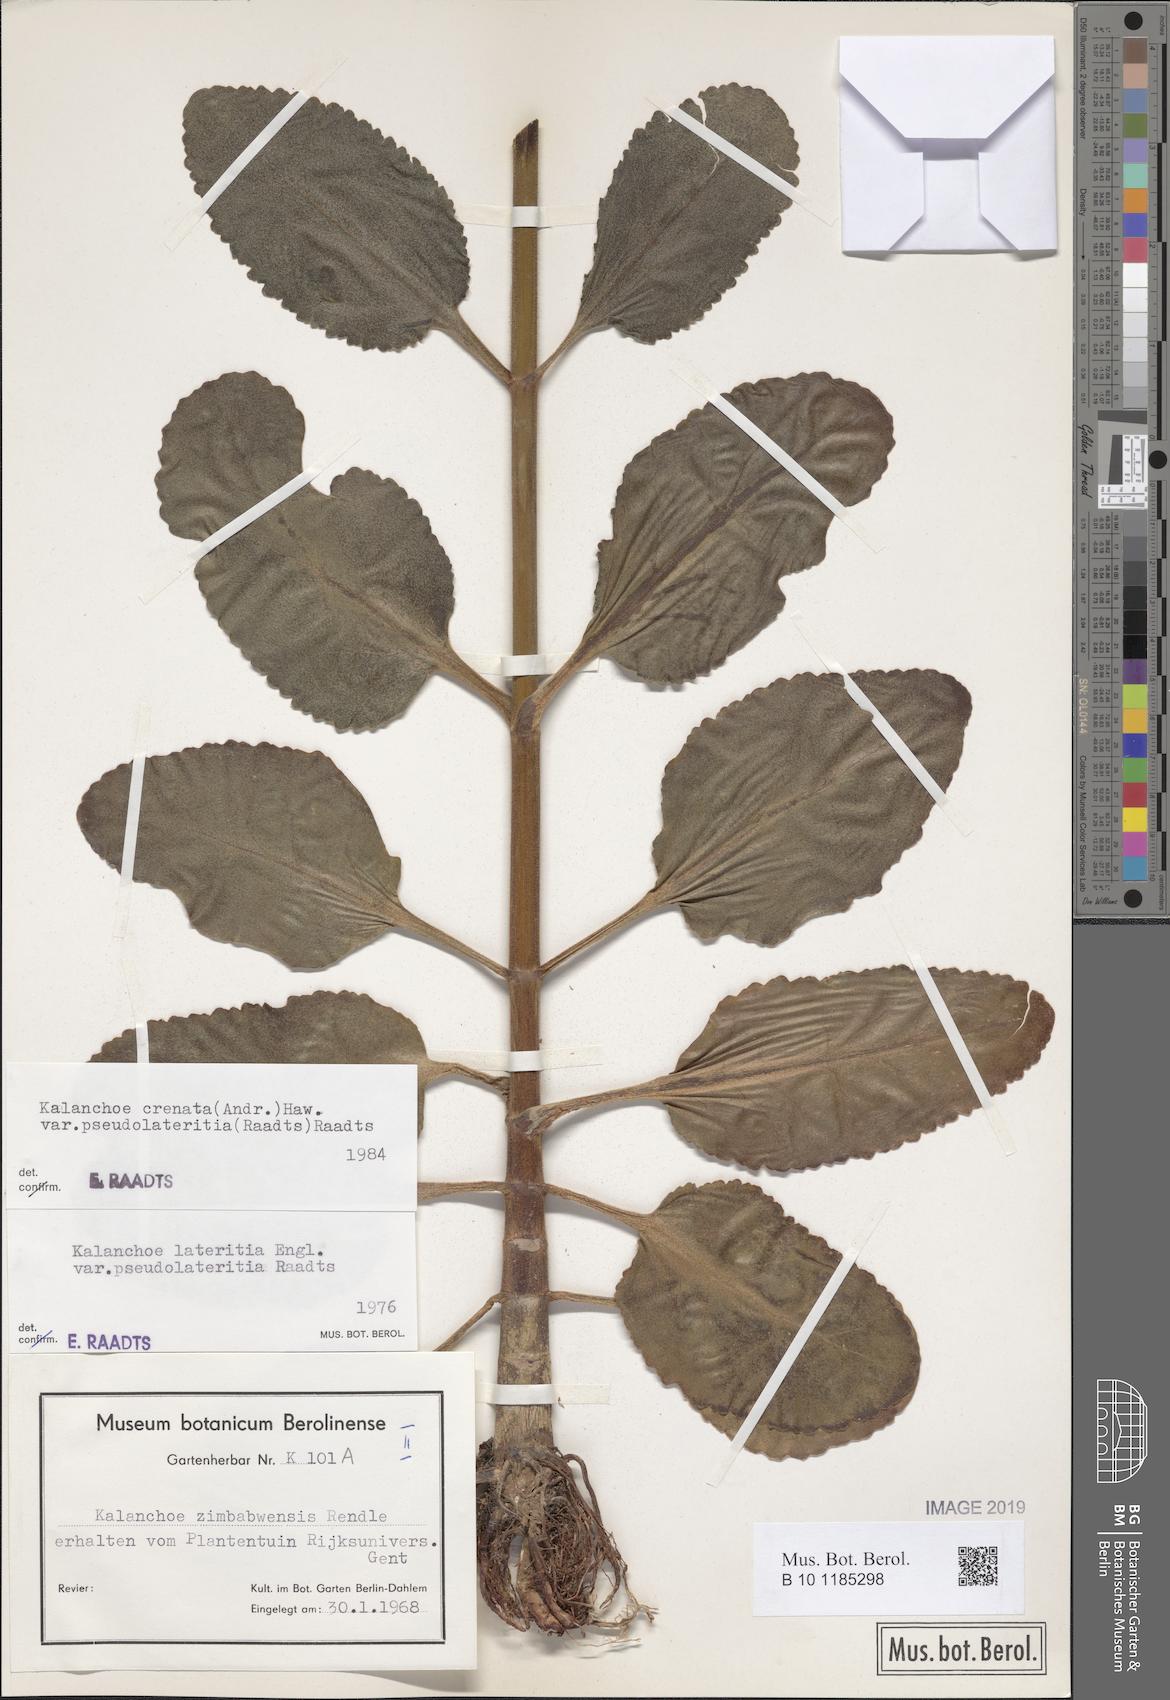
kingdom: Plantae
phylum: Tracheophyta
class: Magnoliopsida
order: Saxifragales
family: Crassulaceae
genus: Kalanchoe
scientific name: Kalanchoe lateritia
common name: Kalanchoe
